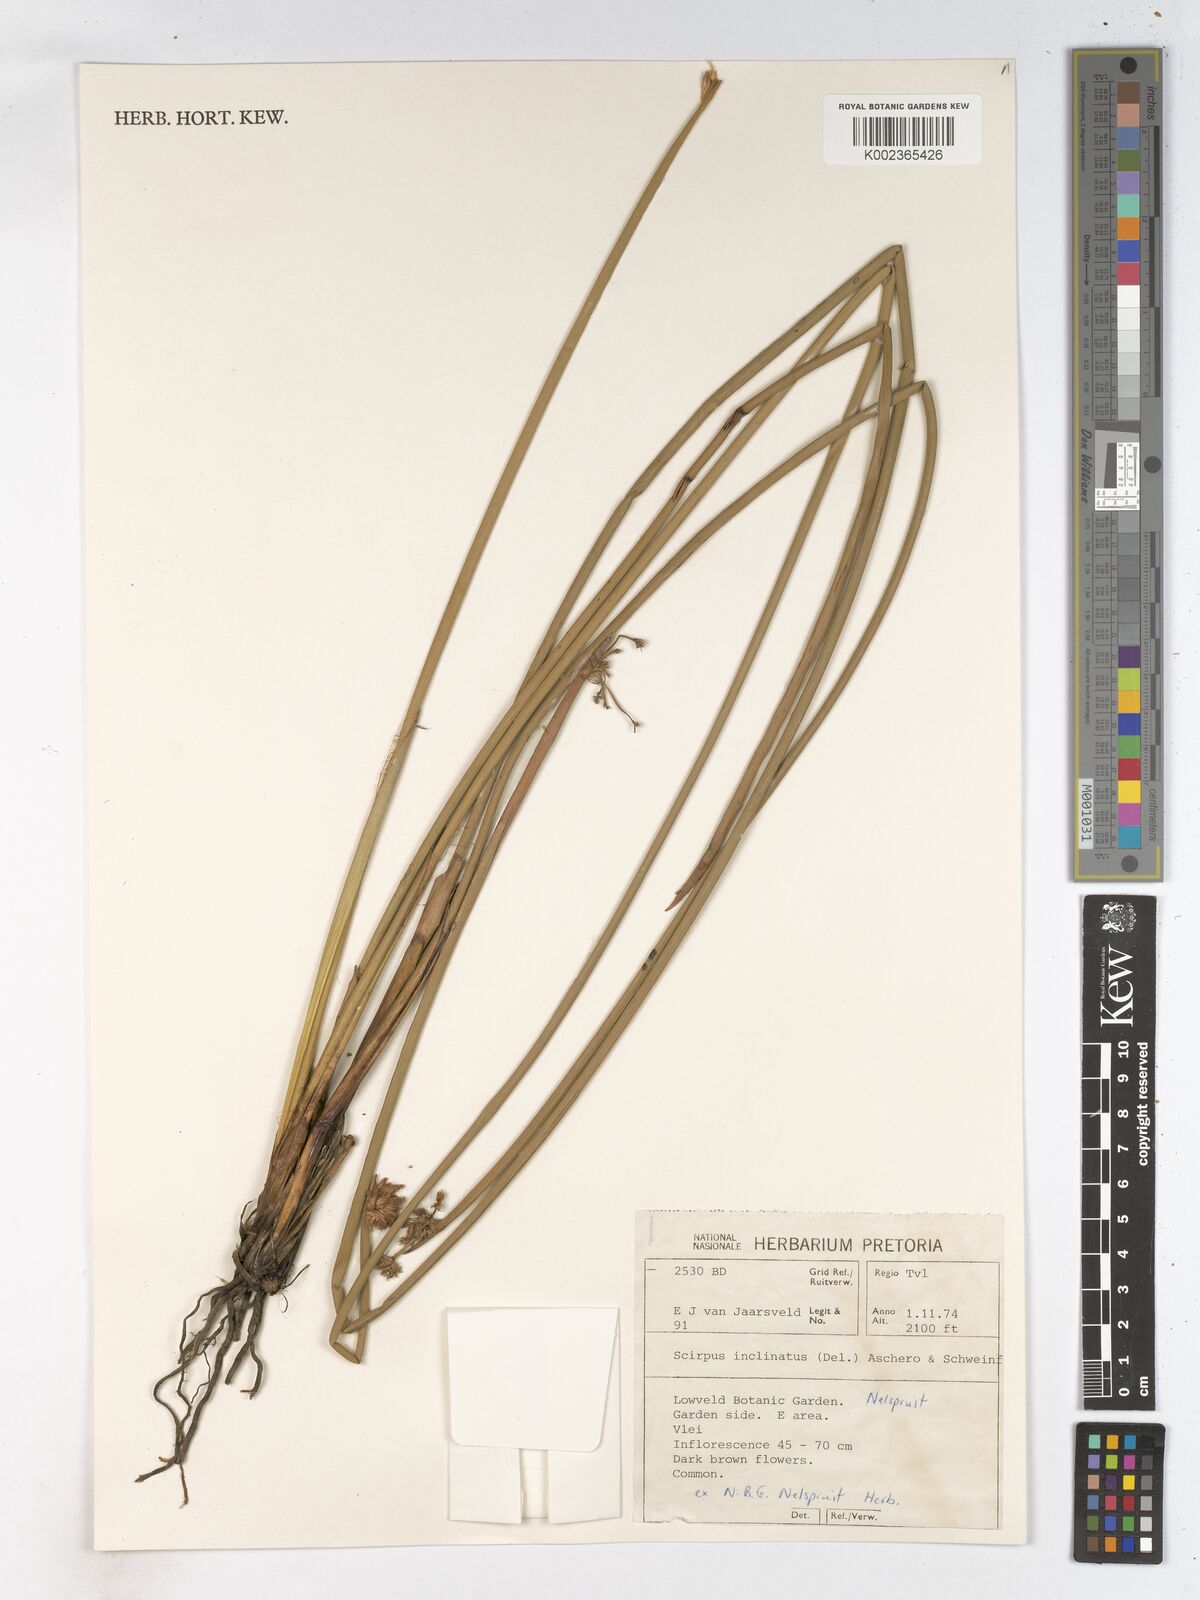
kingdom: Plantae
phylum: Tracheophyta
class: Liliopsida
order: Poales
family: Cyperaceae
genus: Schoenoplectiella
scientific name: Schoenoplectiella corymbosa
